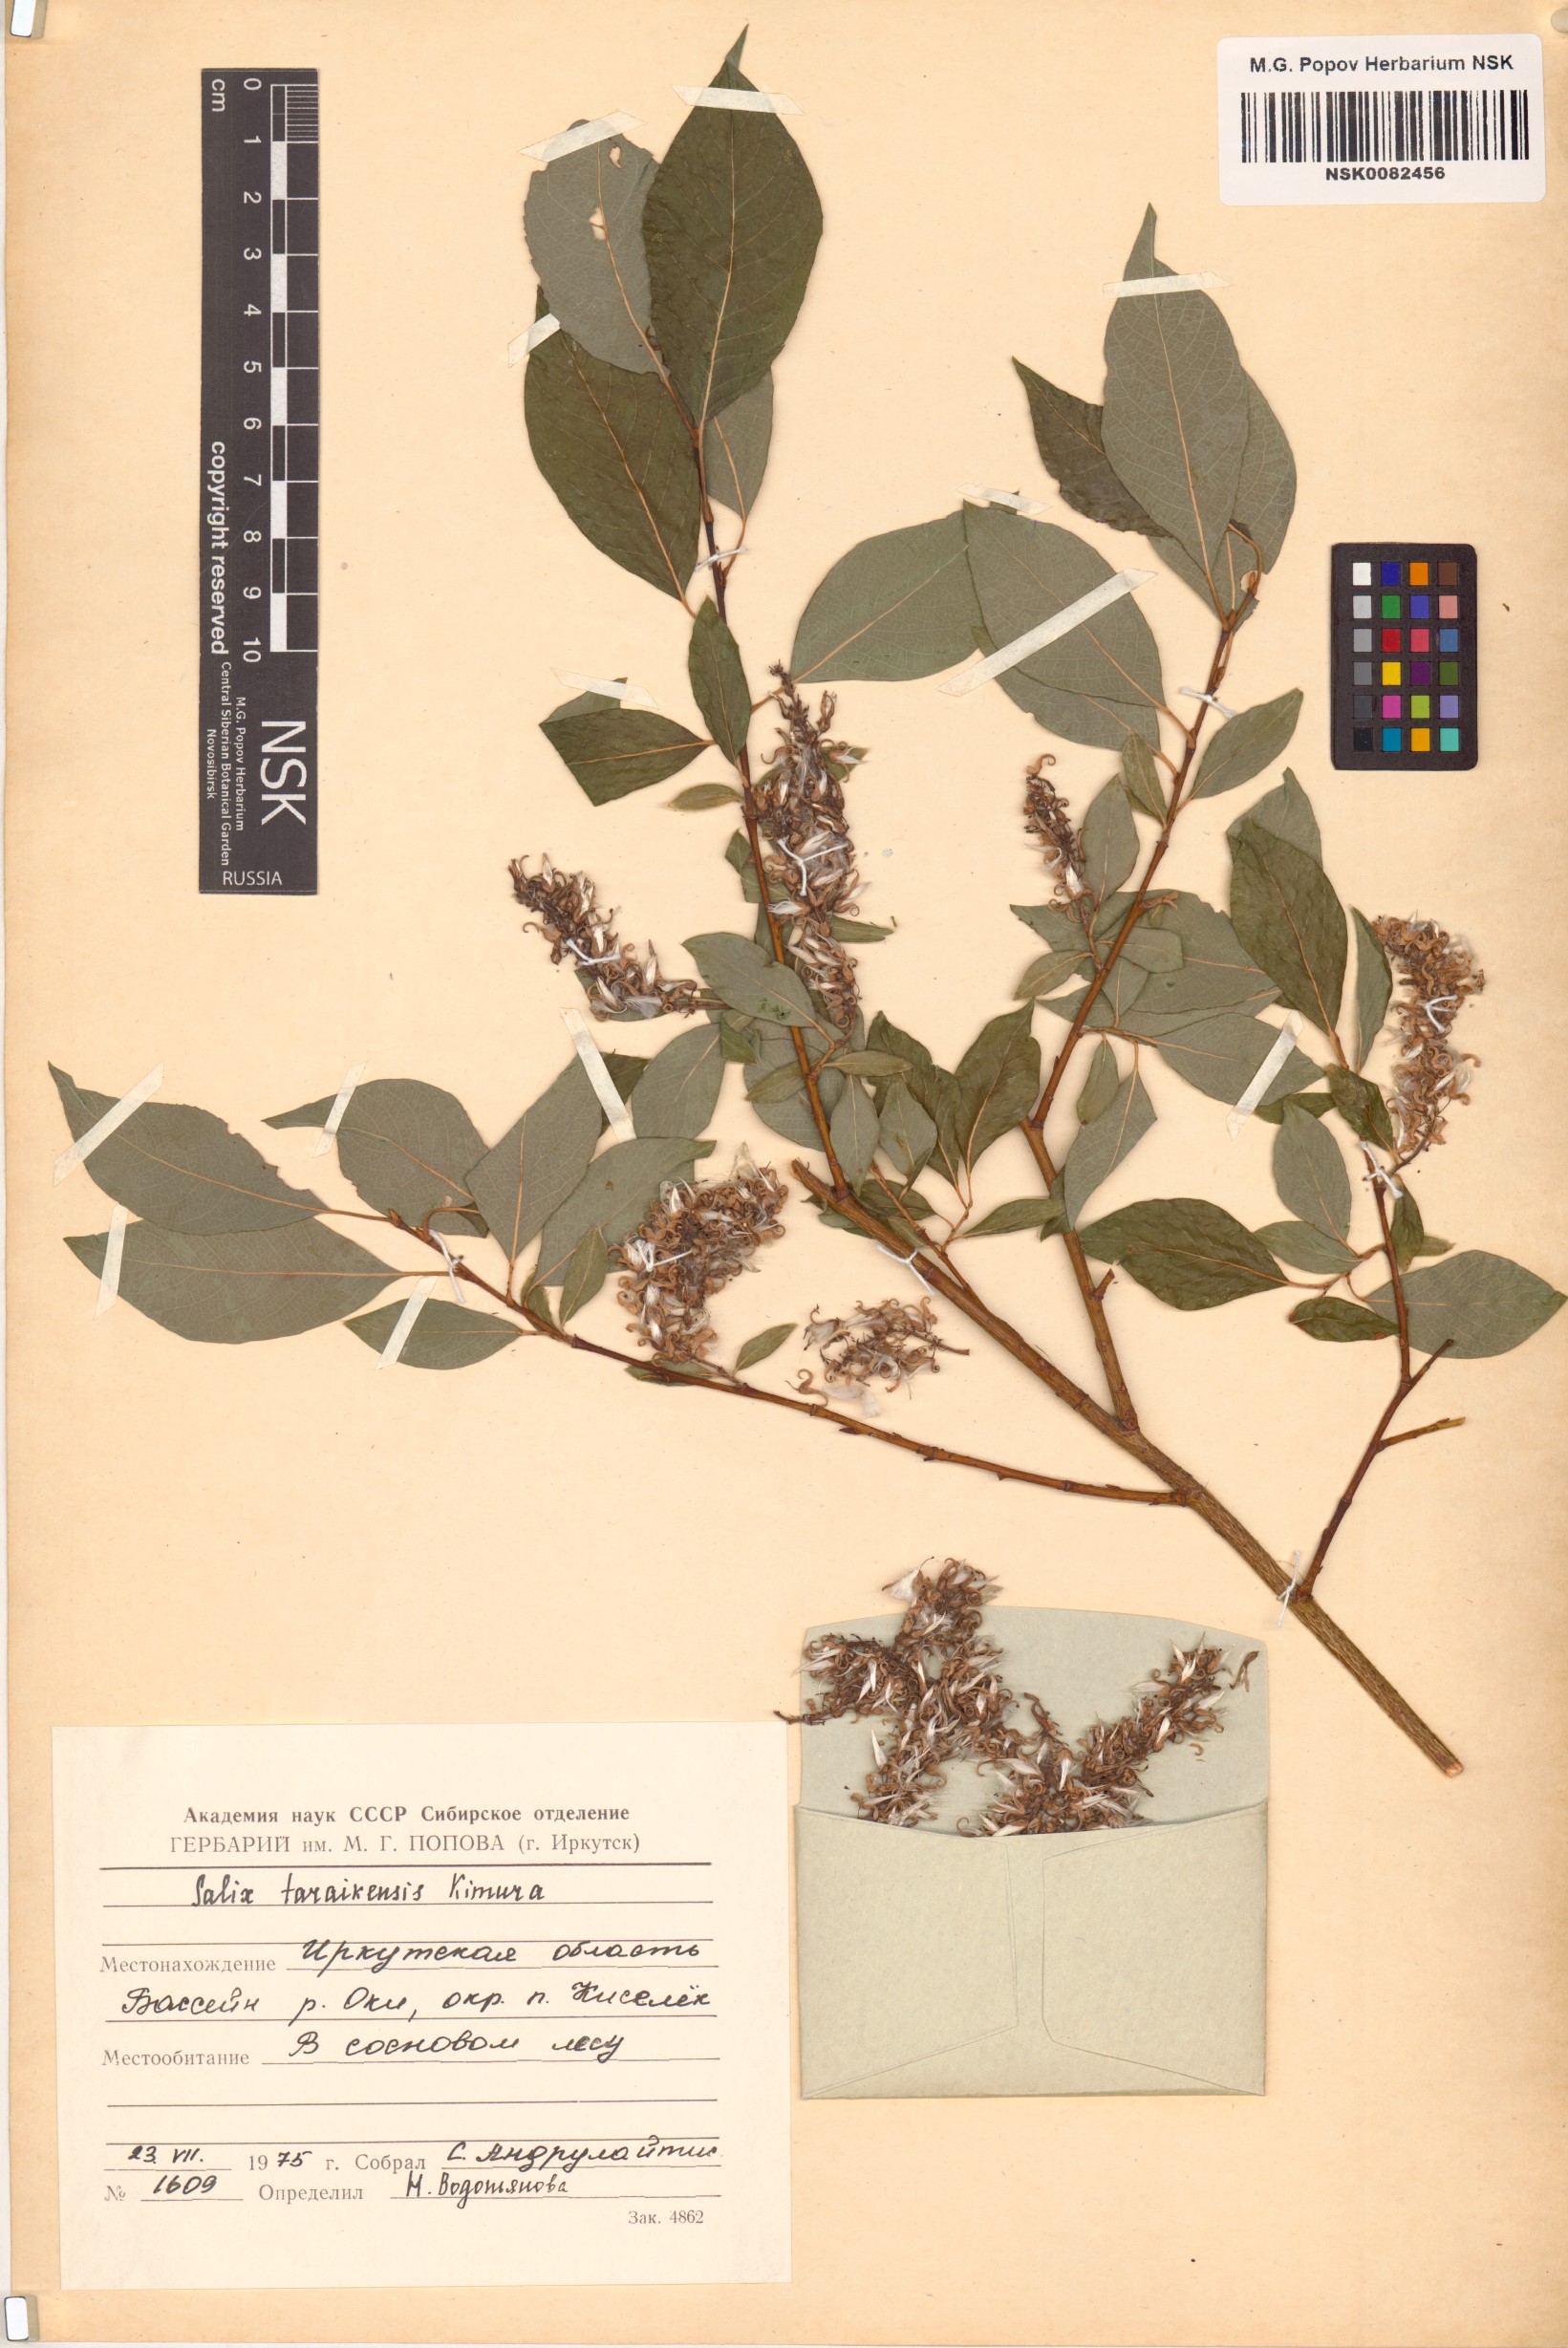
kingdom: Plantae
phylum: Tracheophyta
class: Magnoliopsida
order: Malpighiales
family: Salicaceae
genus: Salix
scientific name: Salix taraikensis
